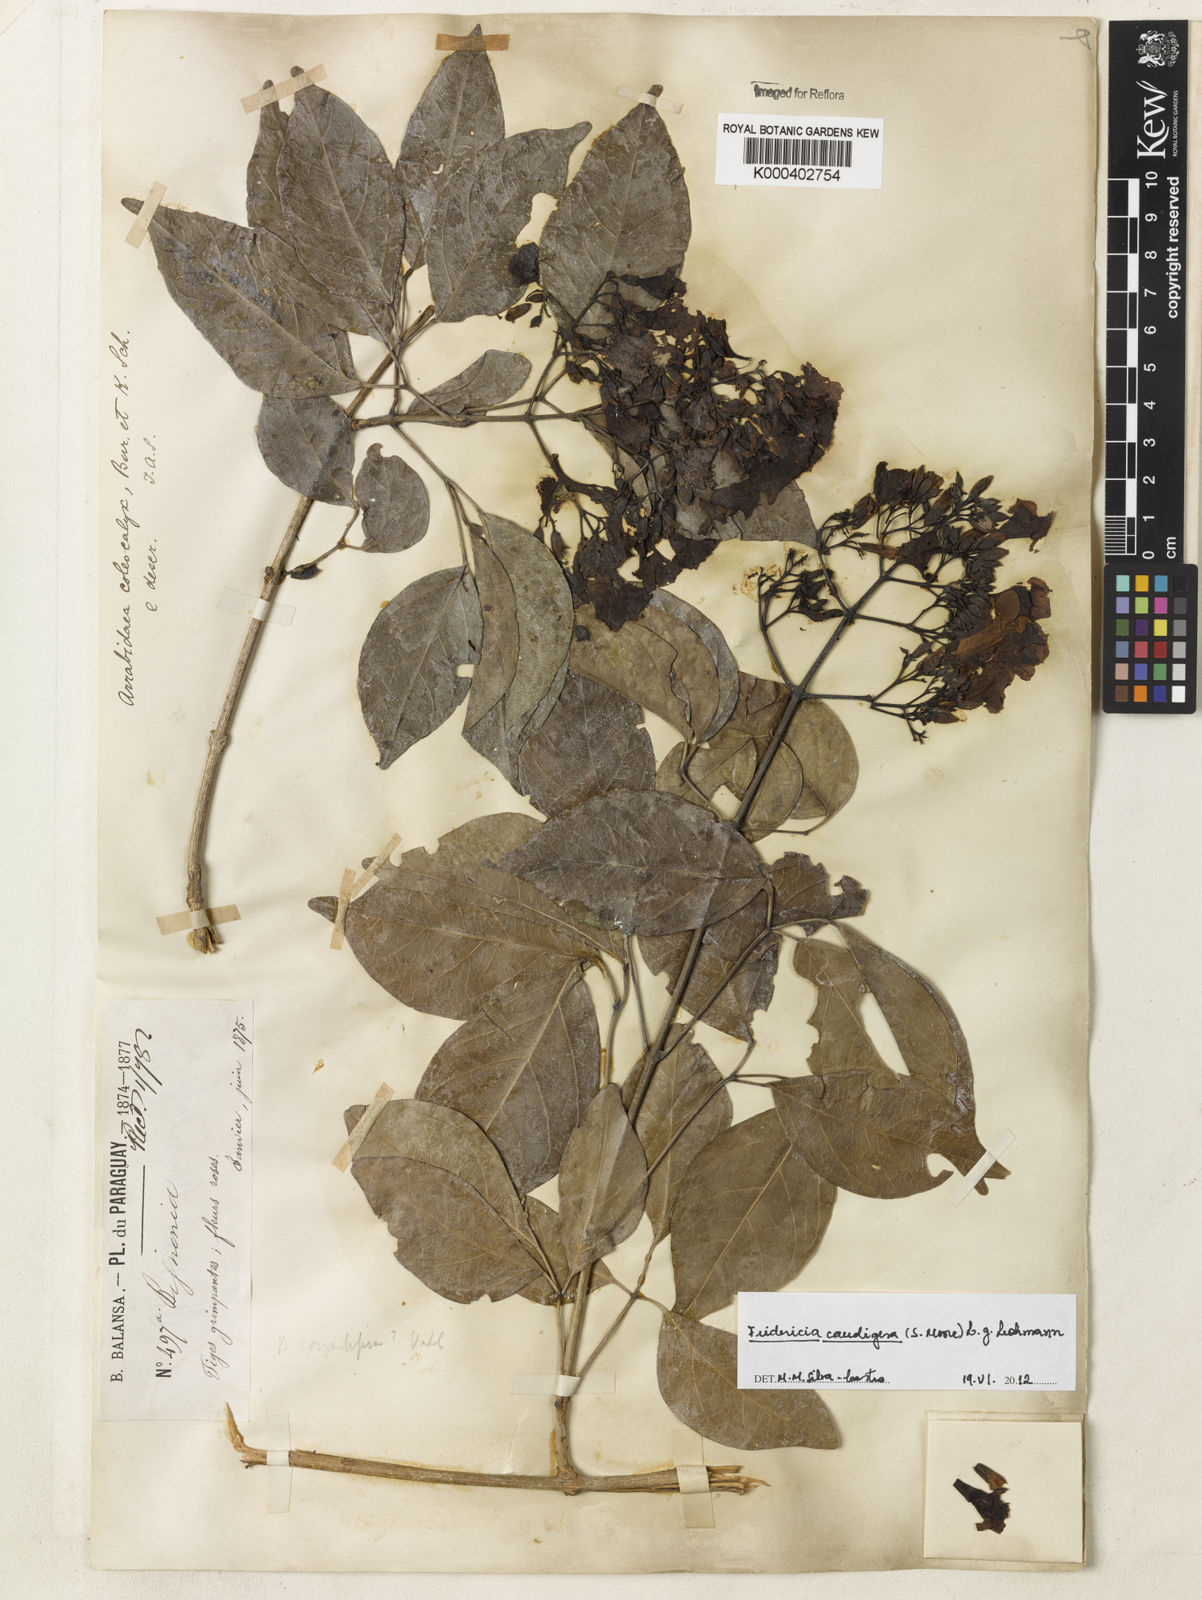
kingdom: Plantae
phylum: Tracheophyta
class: Magnoliopsida
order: Lamiales
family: Bignoniaceae
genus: Fridericia
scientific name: Fridericia caudigera
